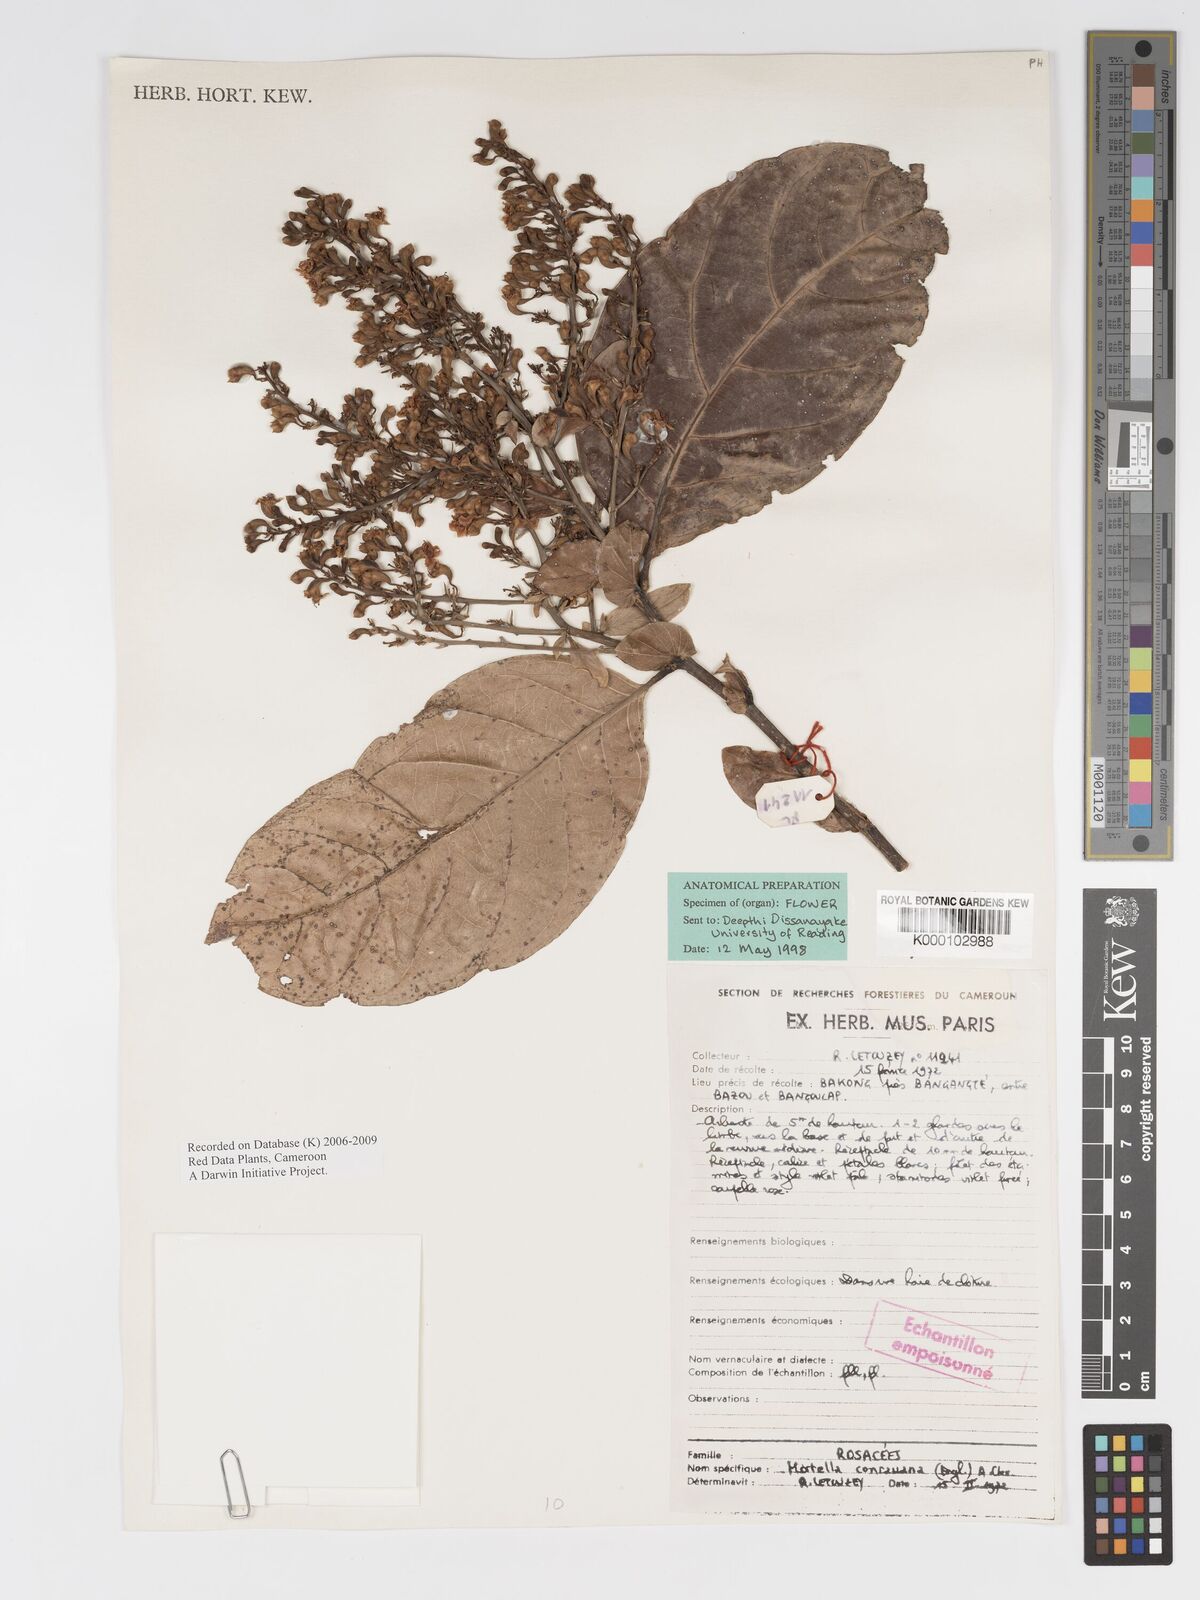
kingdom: Plantae
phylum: Tracheophyta
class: Magnoliopsida
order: Malpighiales
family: Chrysobalanaceae
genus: Magnistipula
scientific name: Magnistipula conrauana
